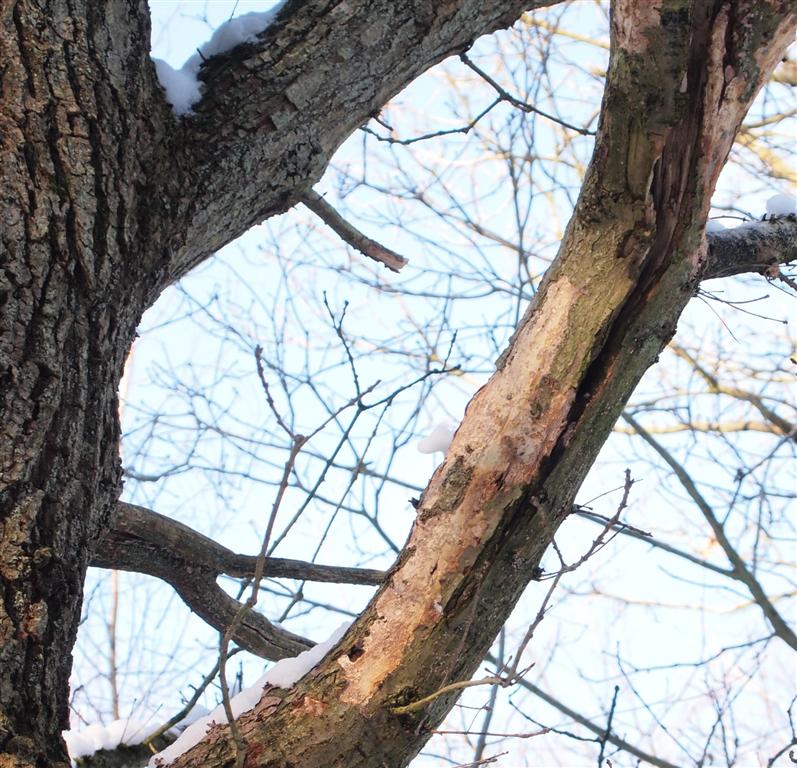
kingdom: Fungi
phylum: Basidiomycota
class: Agaricomycetes
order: Corticiales
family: Vuilleminiaceae
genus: Vuilleminia
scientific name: Vuilleminia comedens
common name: almindelig barksprænger
